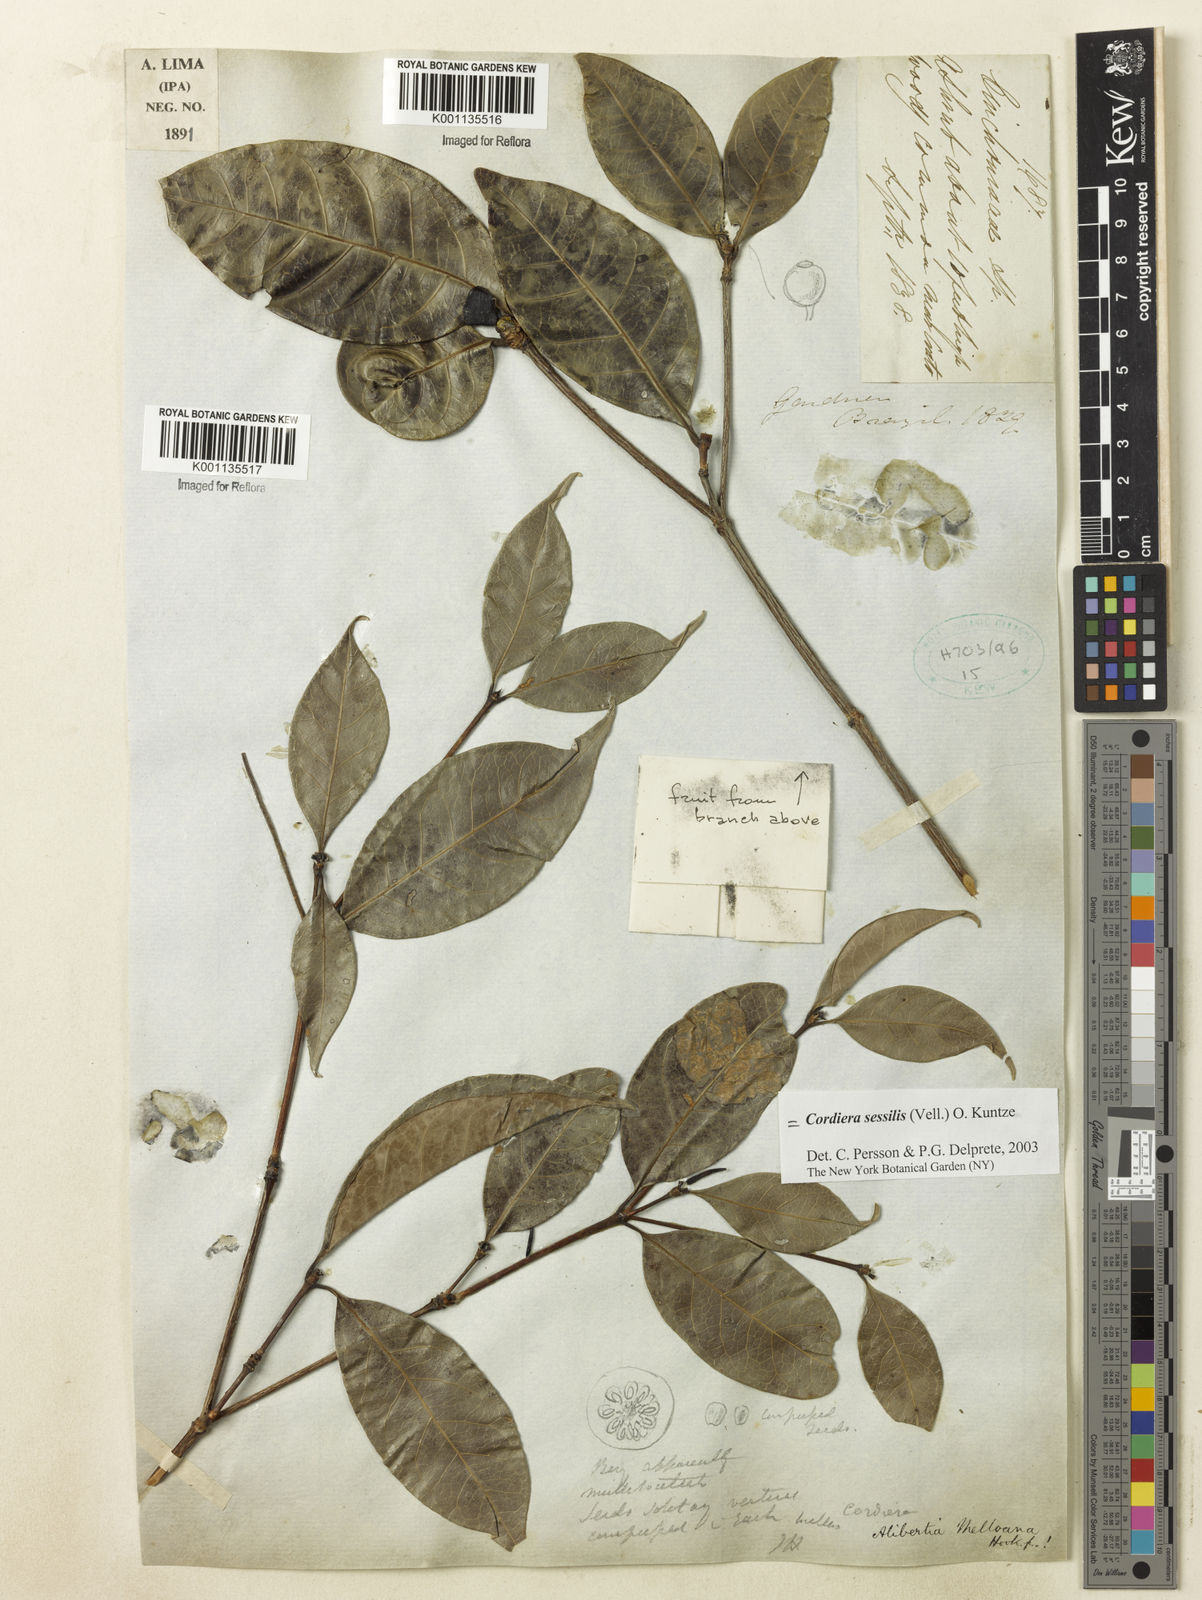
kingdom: Plantae
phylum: Tracheophyta
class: Magnoliopsida
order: Gentianales
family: Rubiaceae
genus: Cordiera
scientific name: Cordiera sessilis
